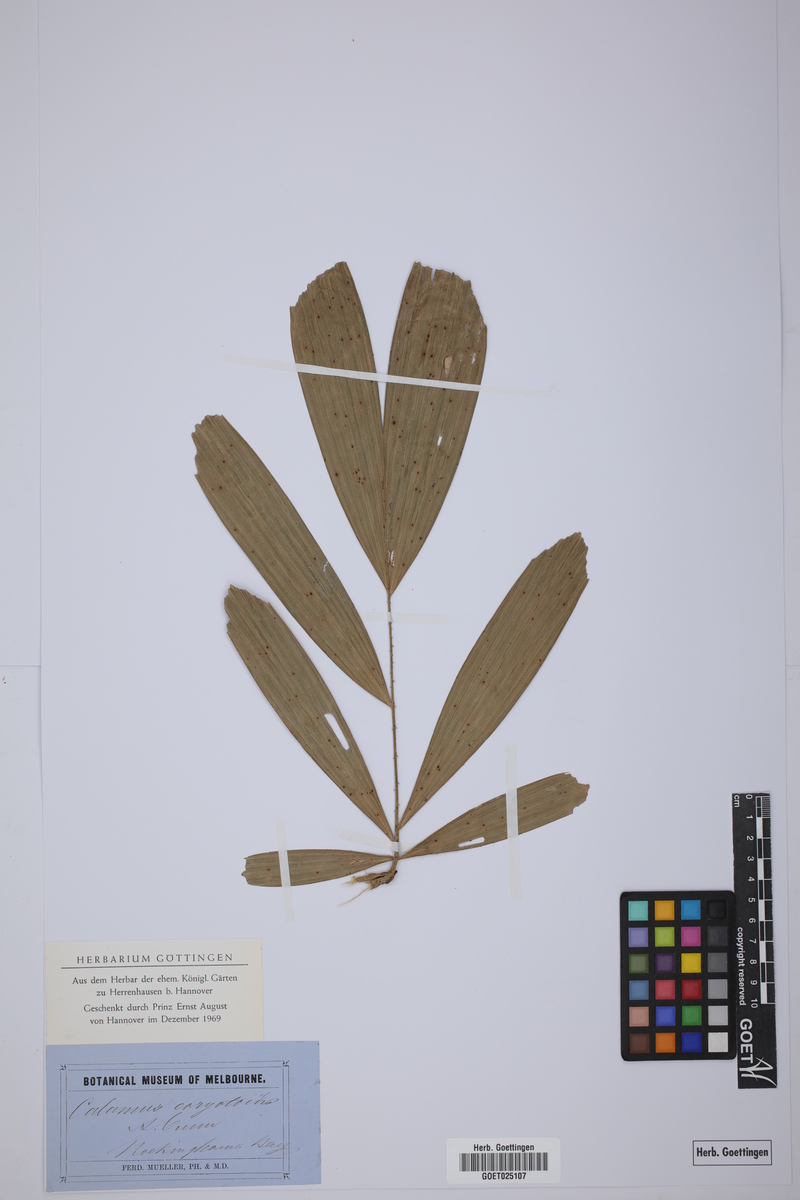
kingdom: Plantae
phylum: Tracheophyta
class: Liliopsida
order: Arecales
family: Arecaceae
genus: Calamus
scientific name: Calamus caryotoides
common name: Fishtail lawyer cane
